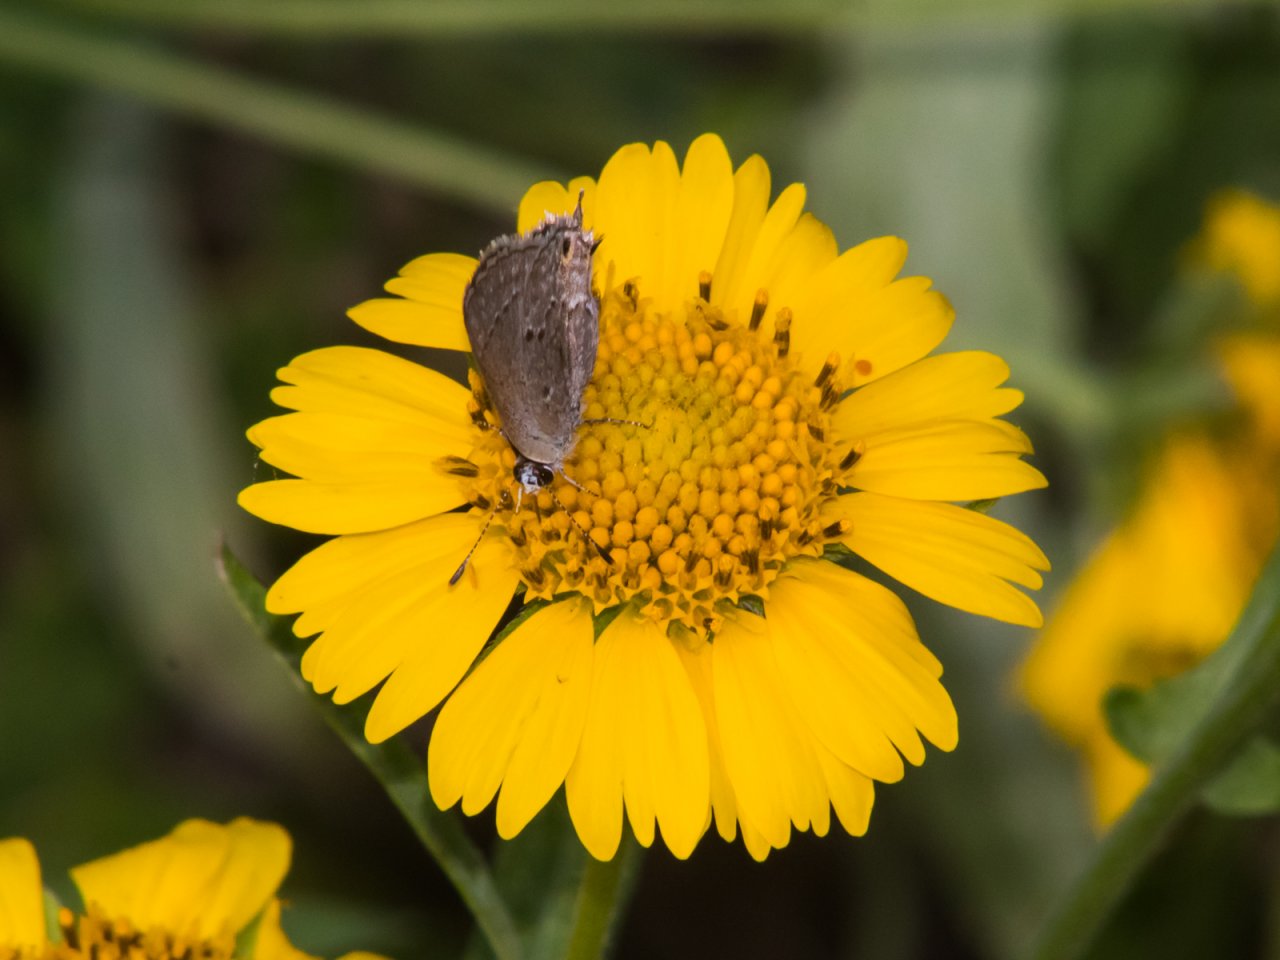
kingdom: Animalia
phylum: Arthropoda
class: Insecta
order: Lepidoptera
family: Lycaenidae
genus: Callicista
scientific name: Callicista columella
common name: Mallow Scrub-Hairstreak
